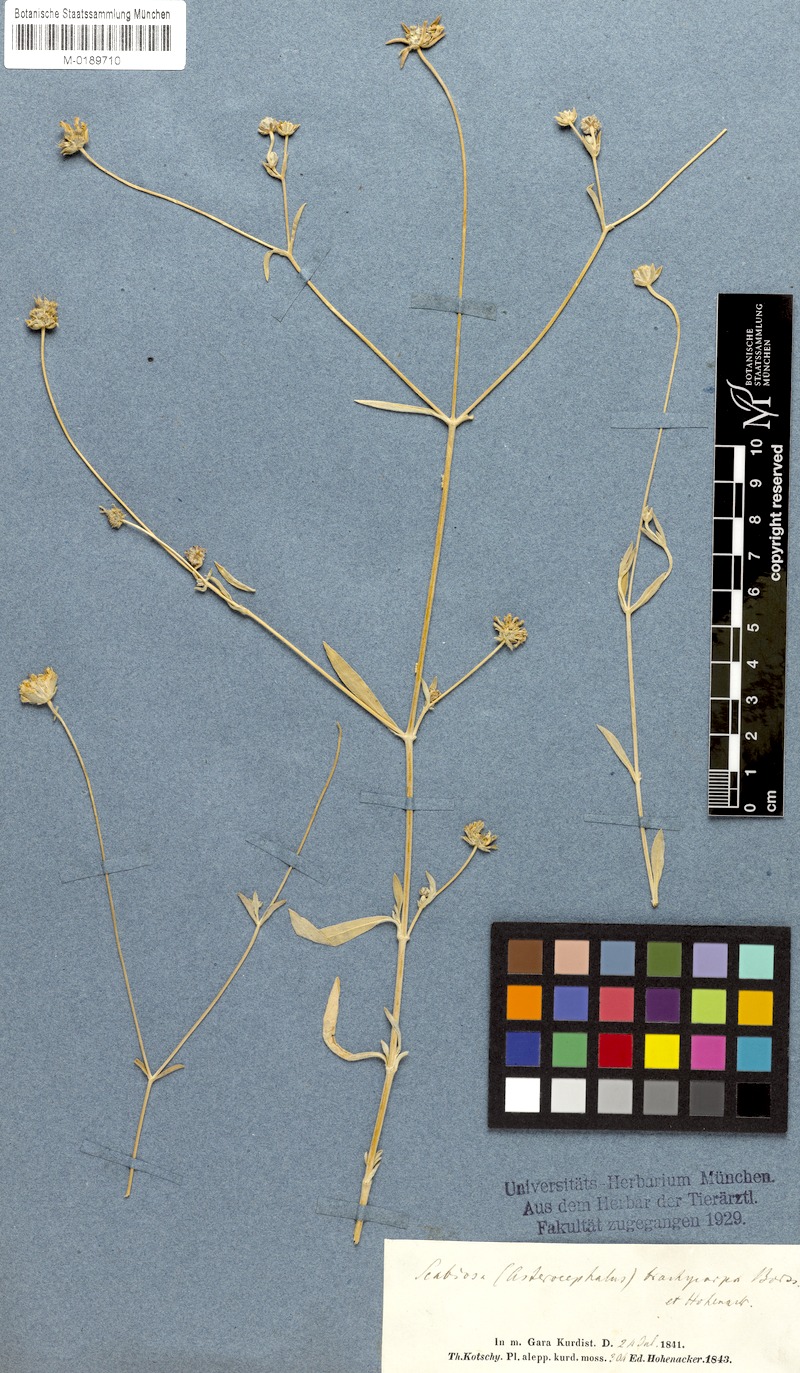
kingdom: Plantae
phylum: Tracheophyta
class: Magnoliopsida
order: Dipsacales
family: Caprifoliaceae
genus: Lomelosia
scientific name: Lomelosia brachycarpa
